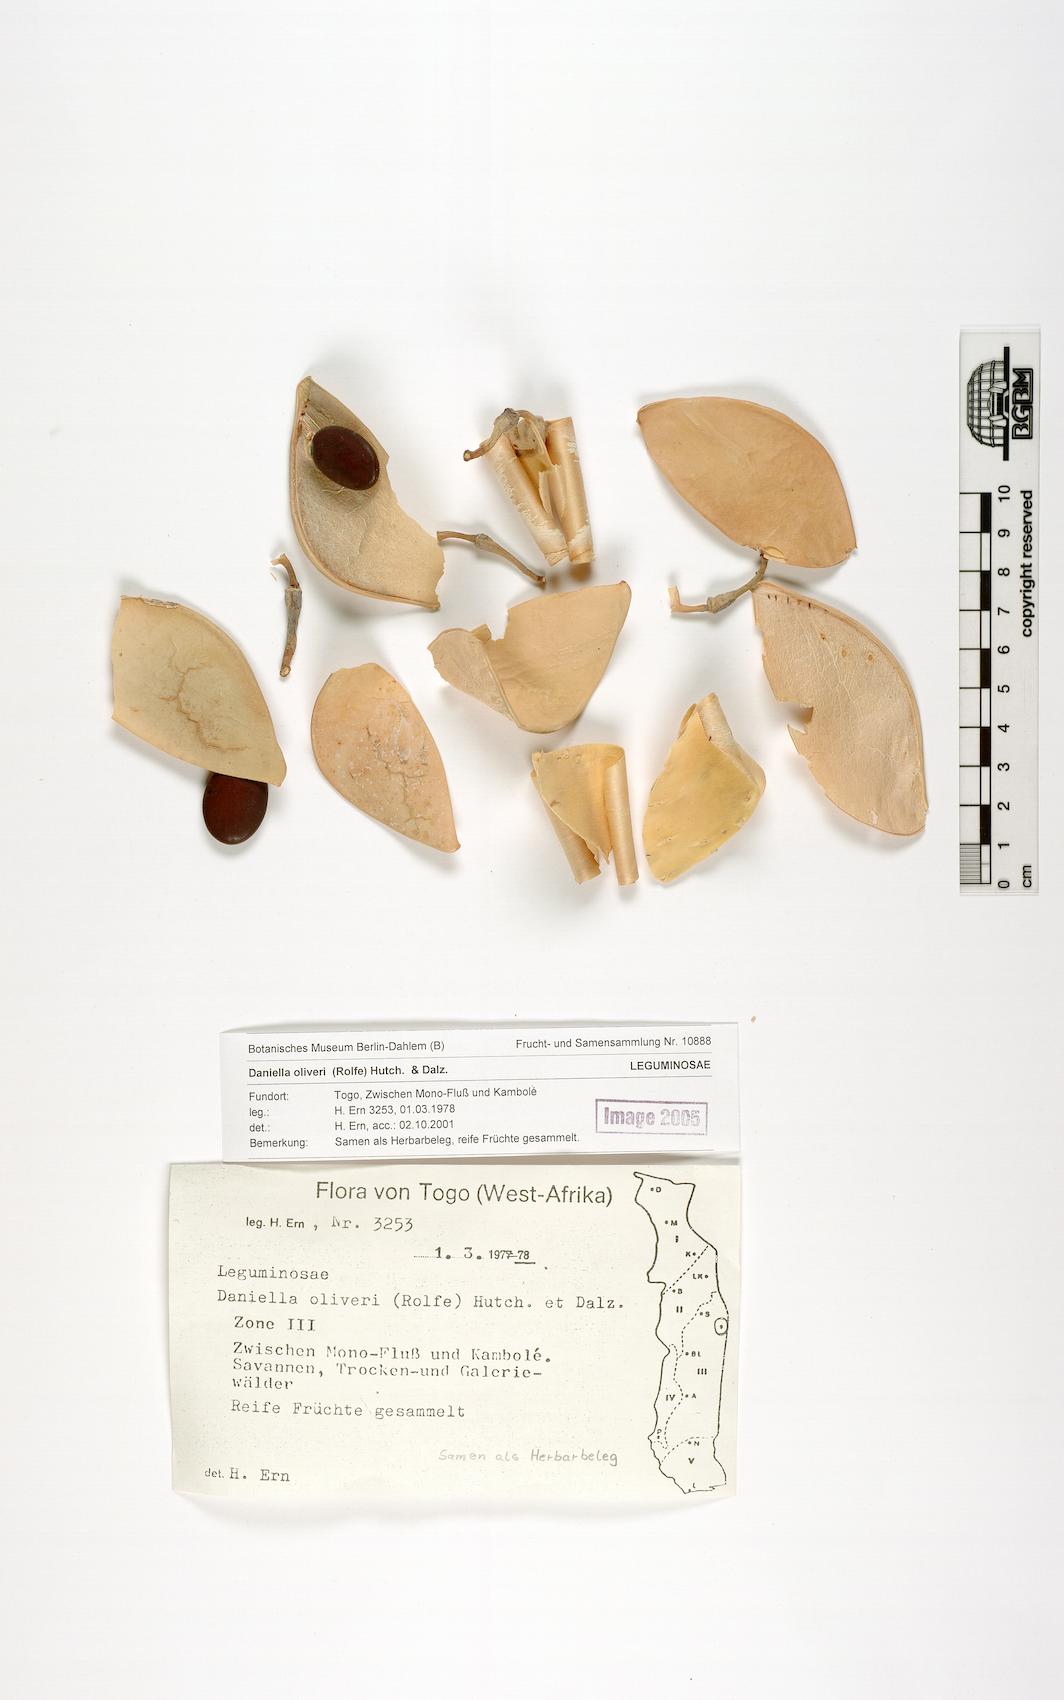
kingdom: Plantae
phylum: Tracheophyta
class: Magnoliopsida
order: Fabales
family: Fabaceae
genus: Daniellia
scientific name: Daniellia oliveri
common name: African copaiba balsamtree
